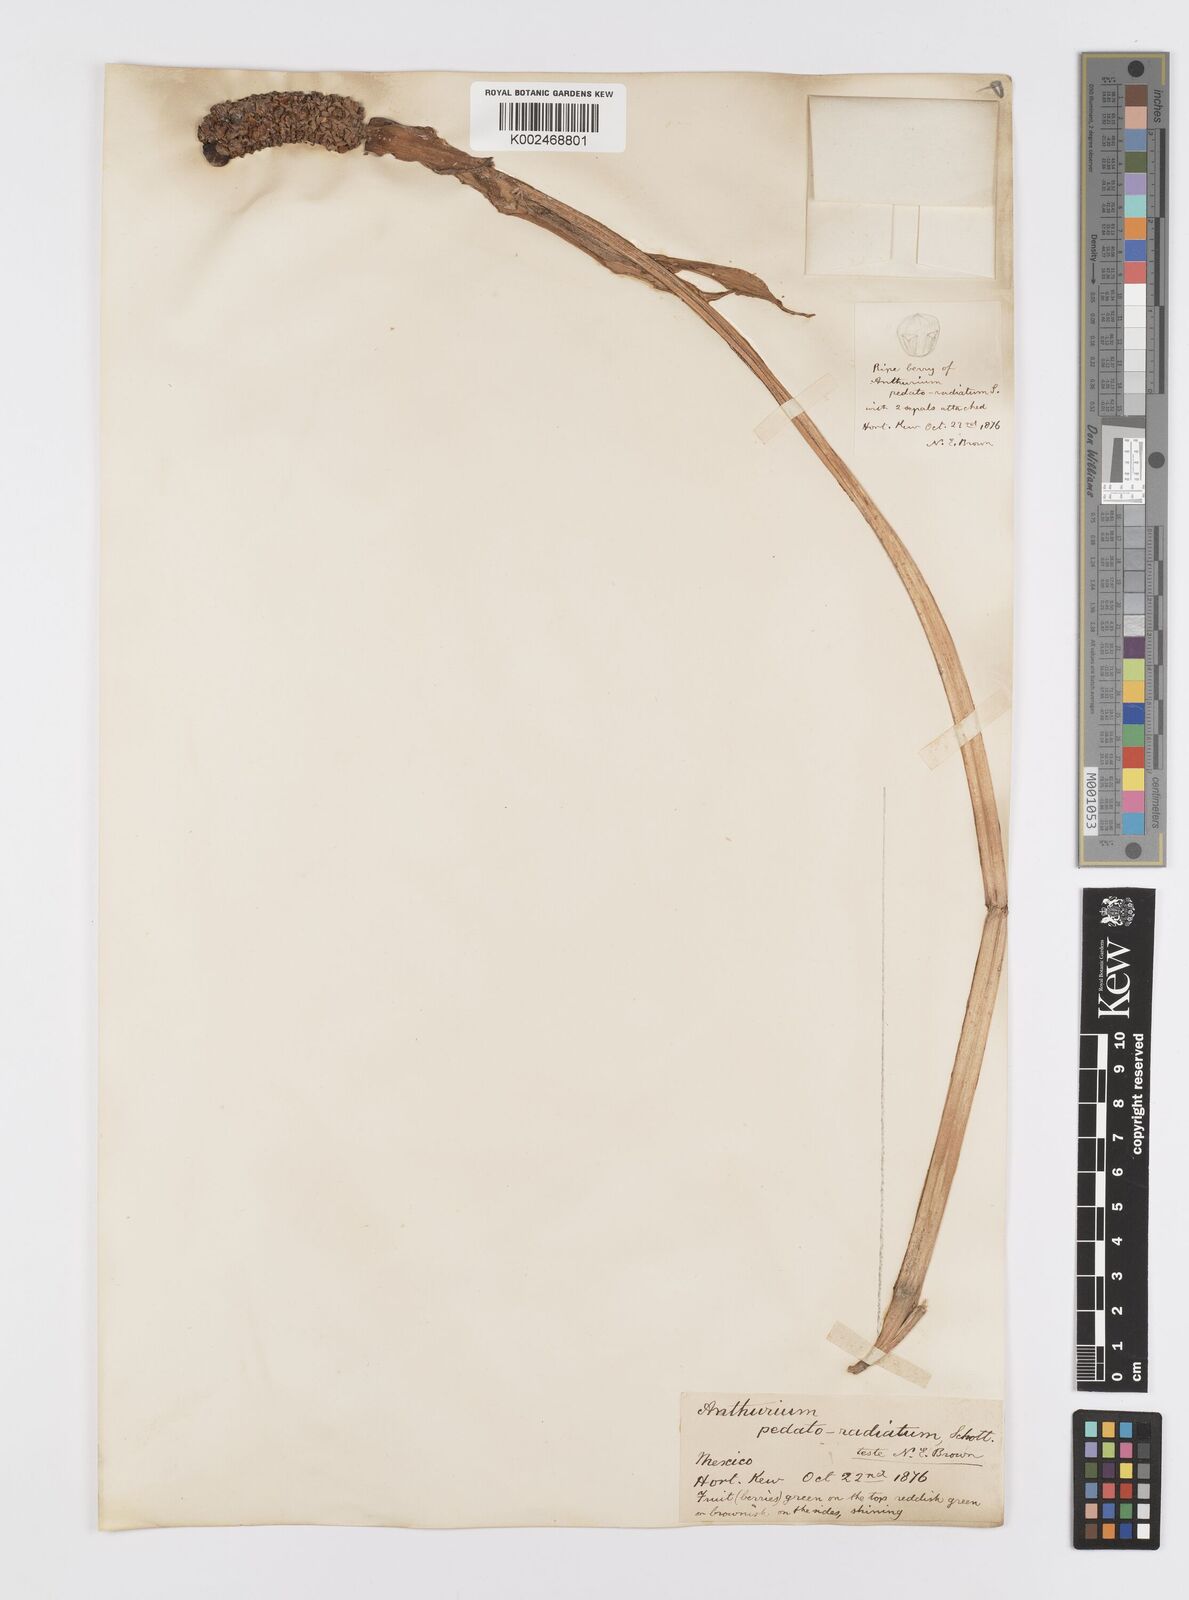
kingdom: Plantae
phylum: Tracheophyta
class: Liliopsida
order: Alismatales
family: Araceae
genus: Anthurium
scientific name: Anthurium pedatoradiatum
